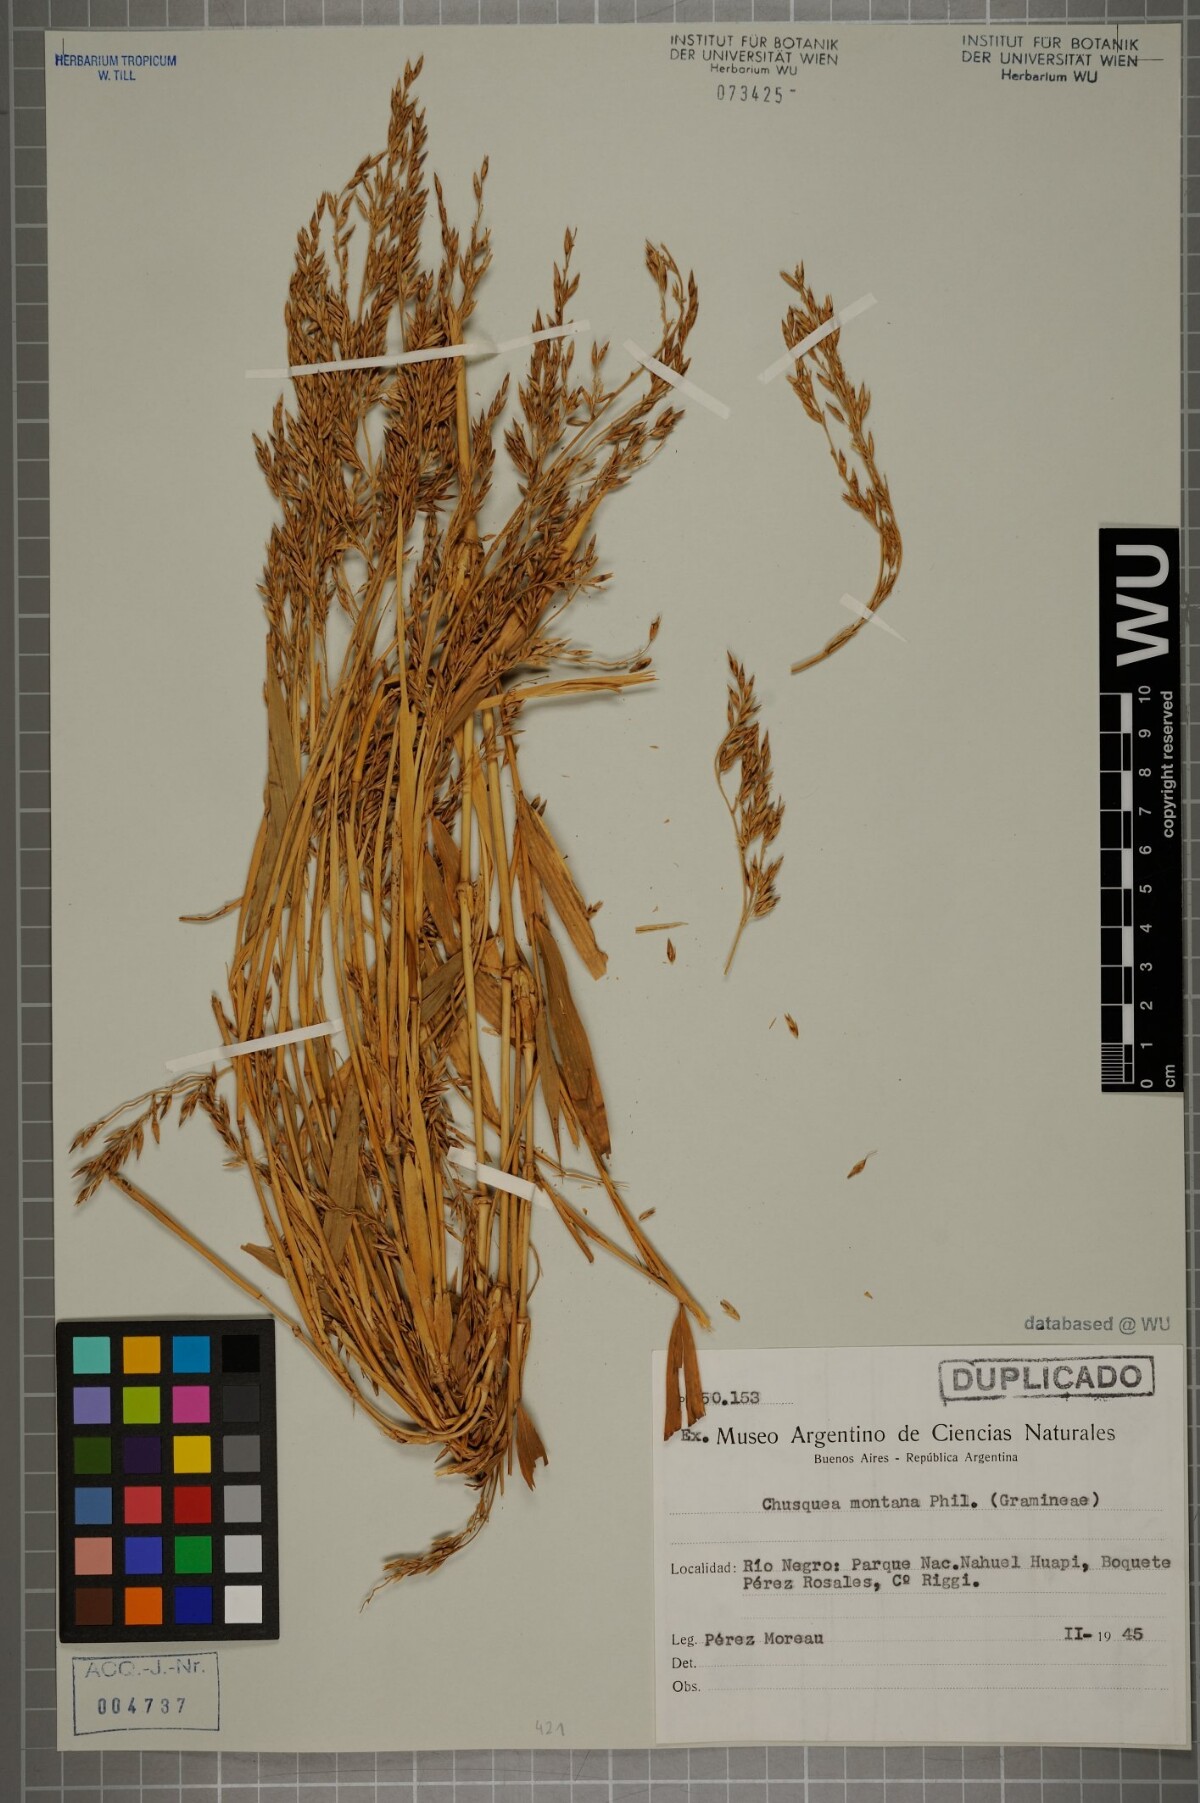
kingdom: Plantae
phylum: Tracheophyta
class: Liliopsida
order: Poales
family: Poaceae
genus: Chusquea
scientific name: Chusquea montana
